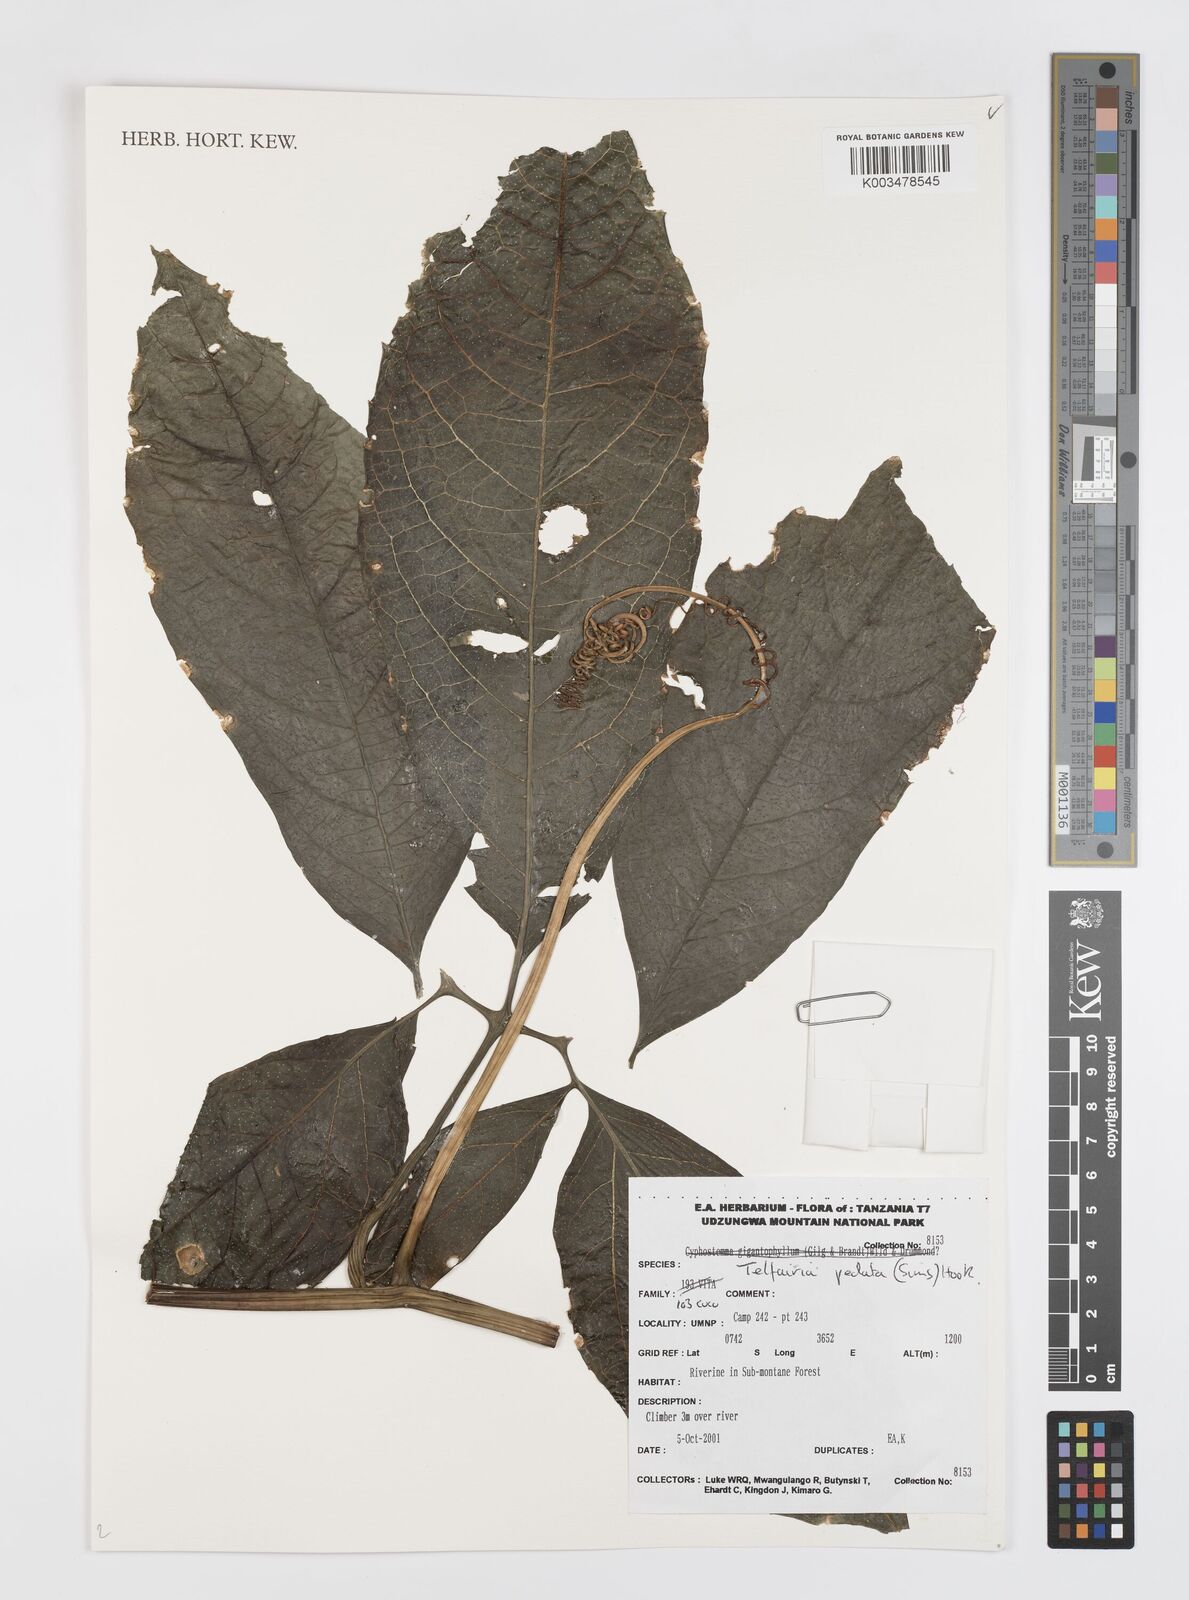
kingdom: Plantae
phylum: Tracheophyta
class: Magnoliopsida
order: Cucurbitales
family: Cucurbitaceae
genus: Telfairia
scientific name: Telfairia pedata
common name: Zanzibar oilvine
